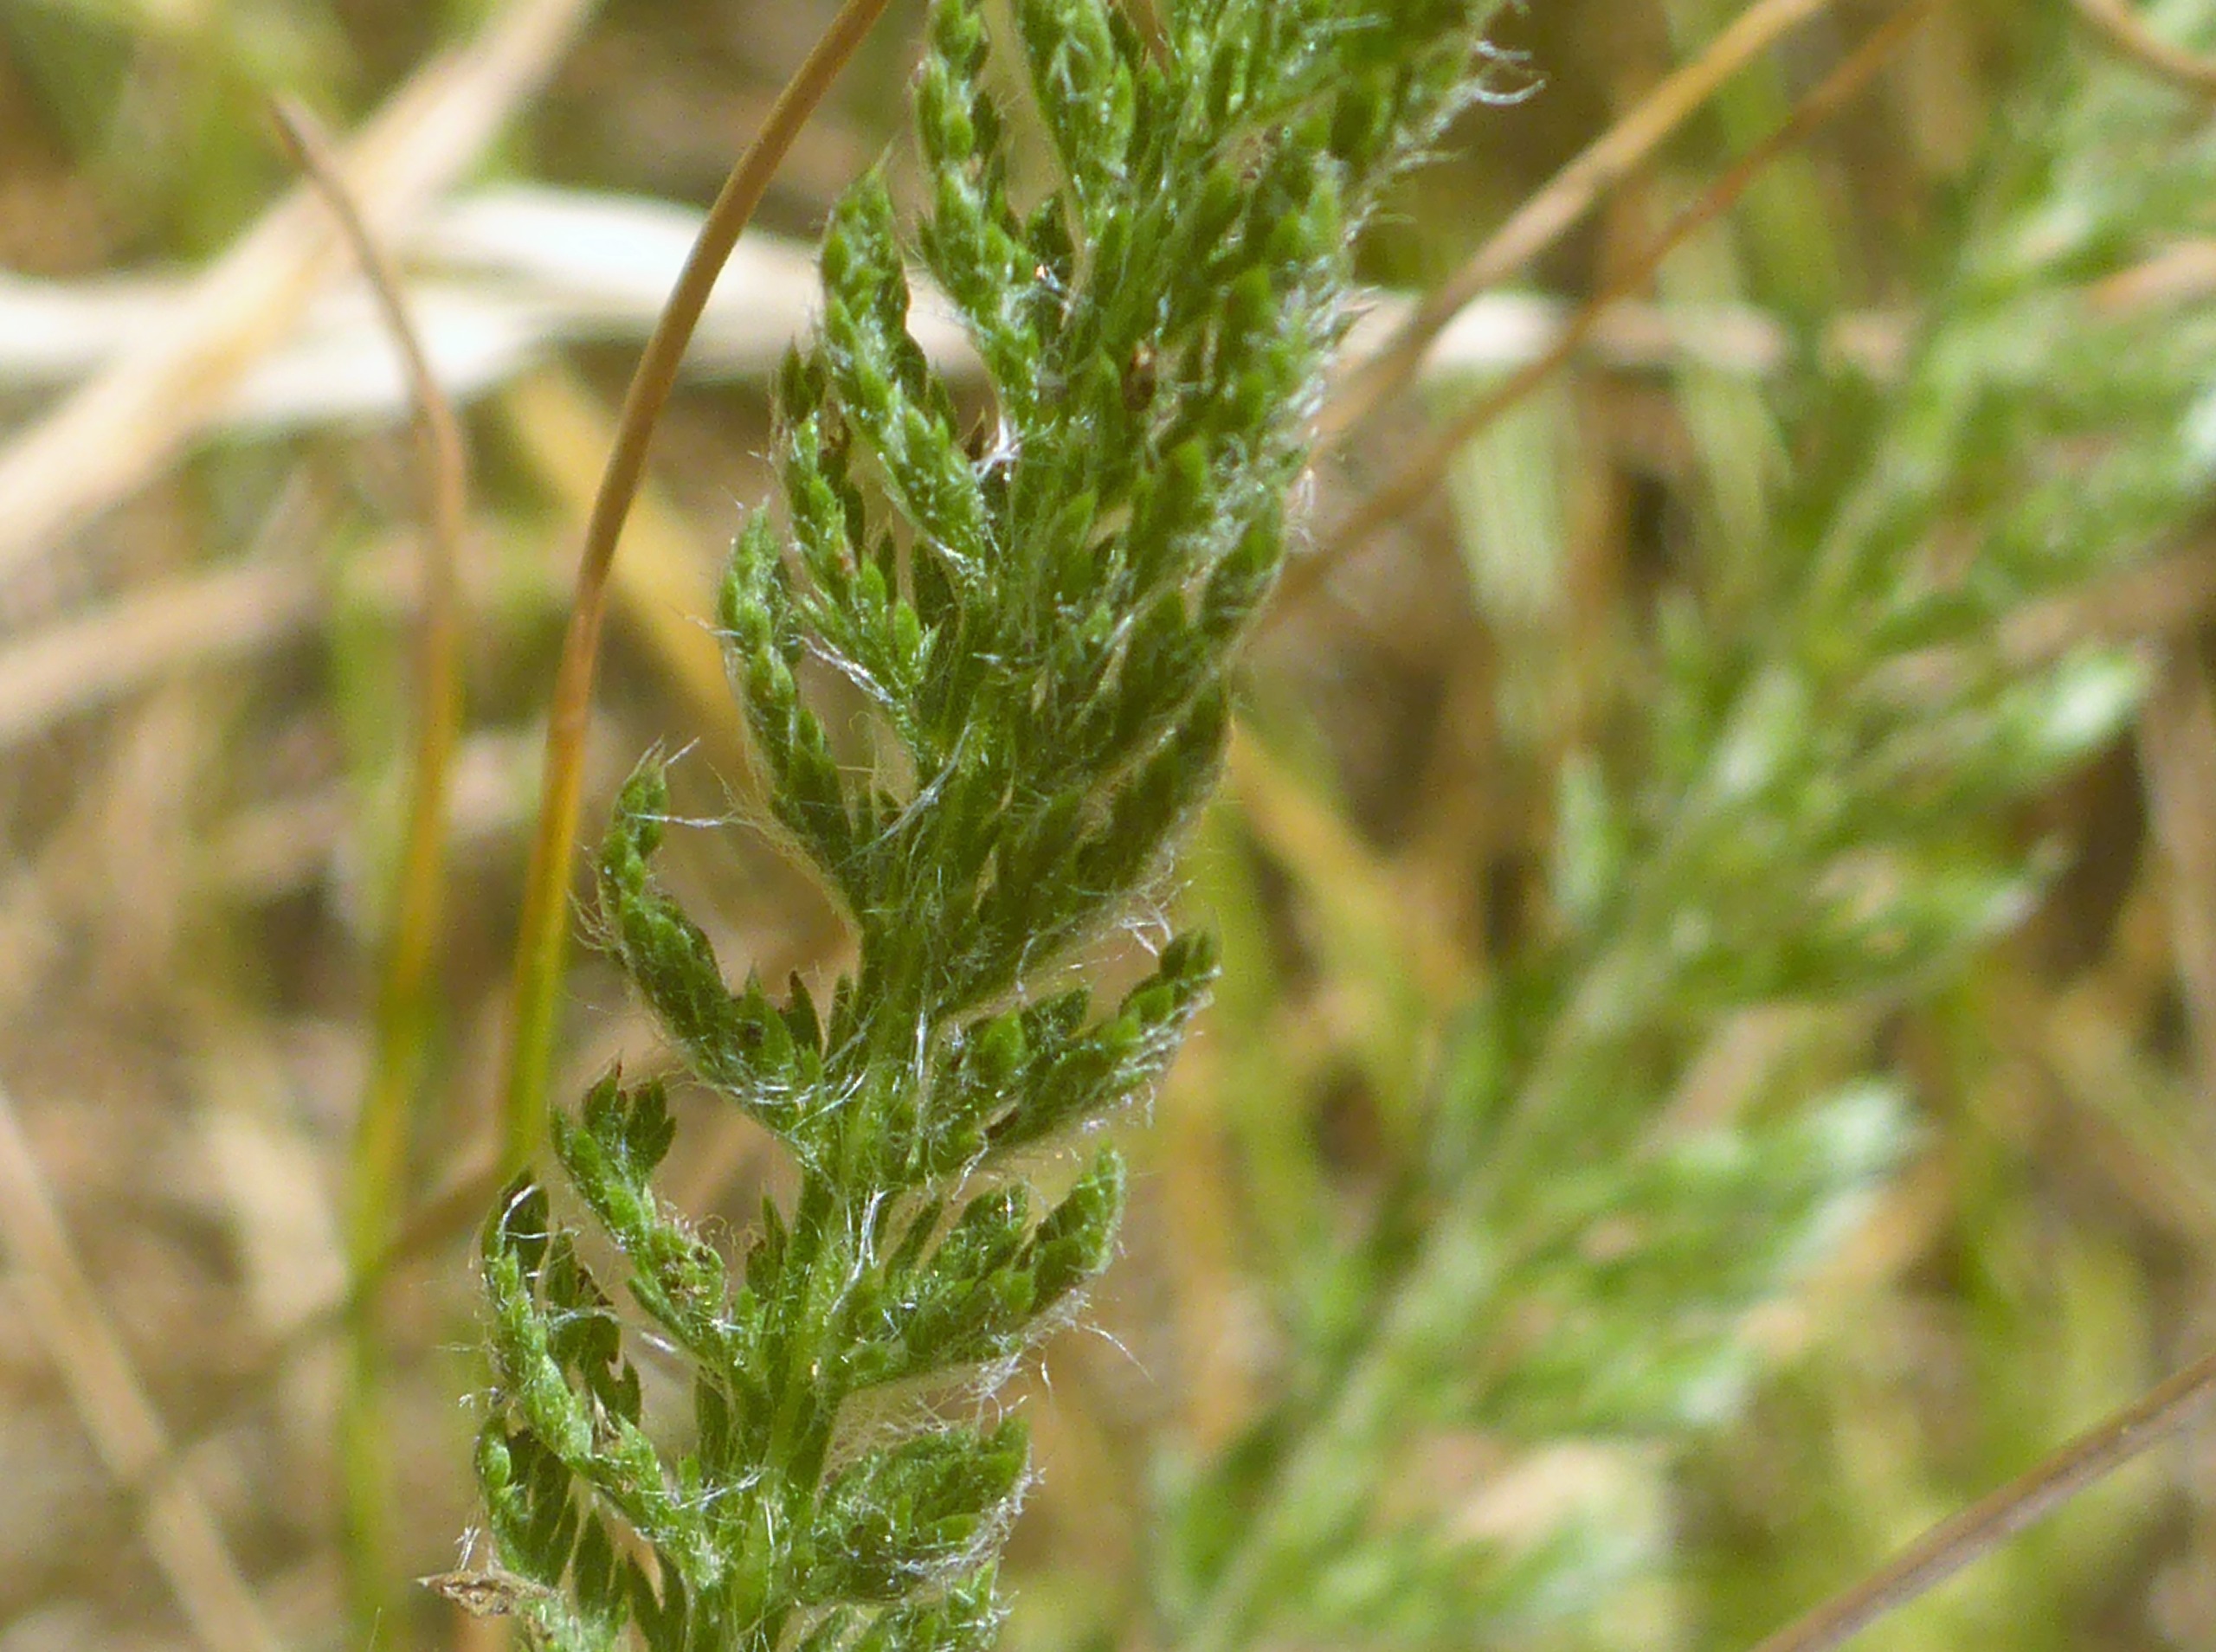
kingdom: Plantae
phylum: Tracheophyta
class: Magnoliopsida
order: Asterales
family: Asteraceae
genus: Achillea
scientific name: Achillea millefolium
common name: Almindelig røllike
